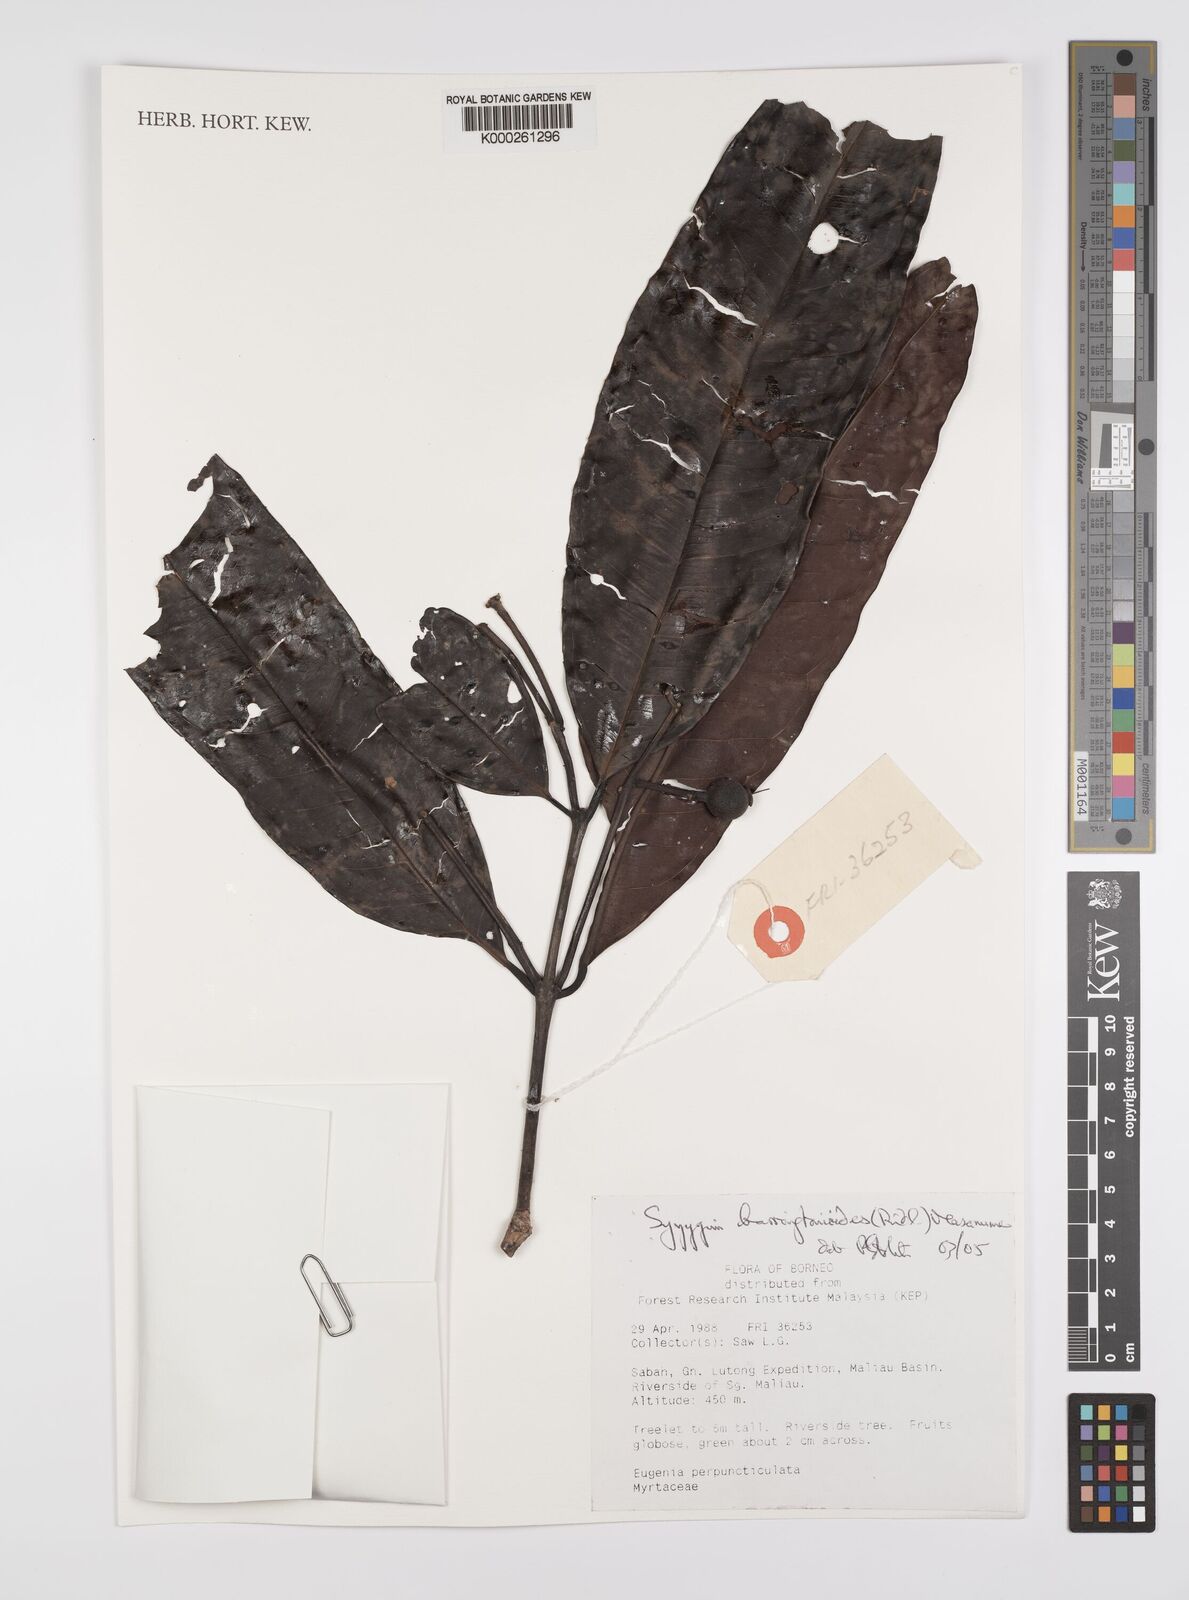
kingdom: Plantae
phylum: Tracheophyta
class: Magnoliopsida
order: Myrtales
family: Myrtaceae
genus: Syzygium
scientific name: Syzygium
